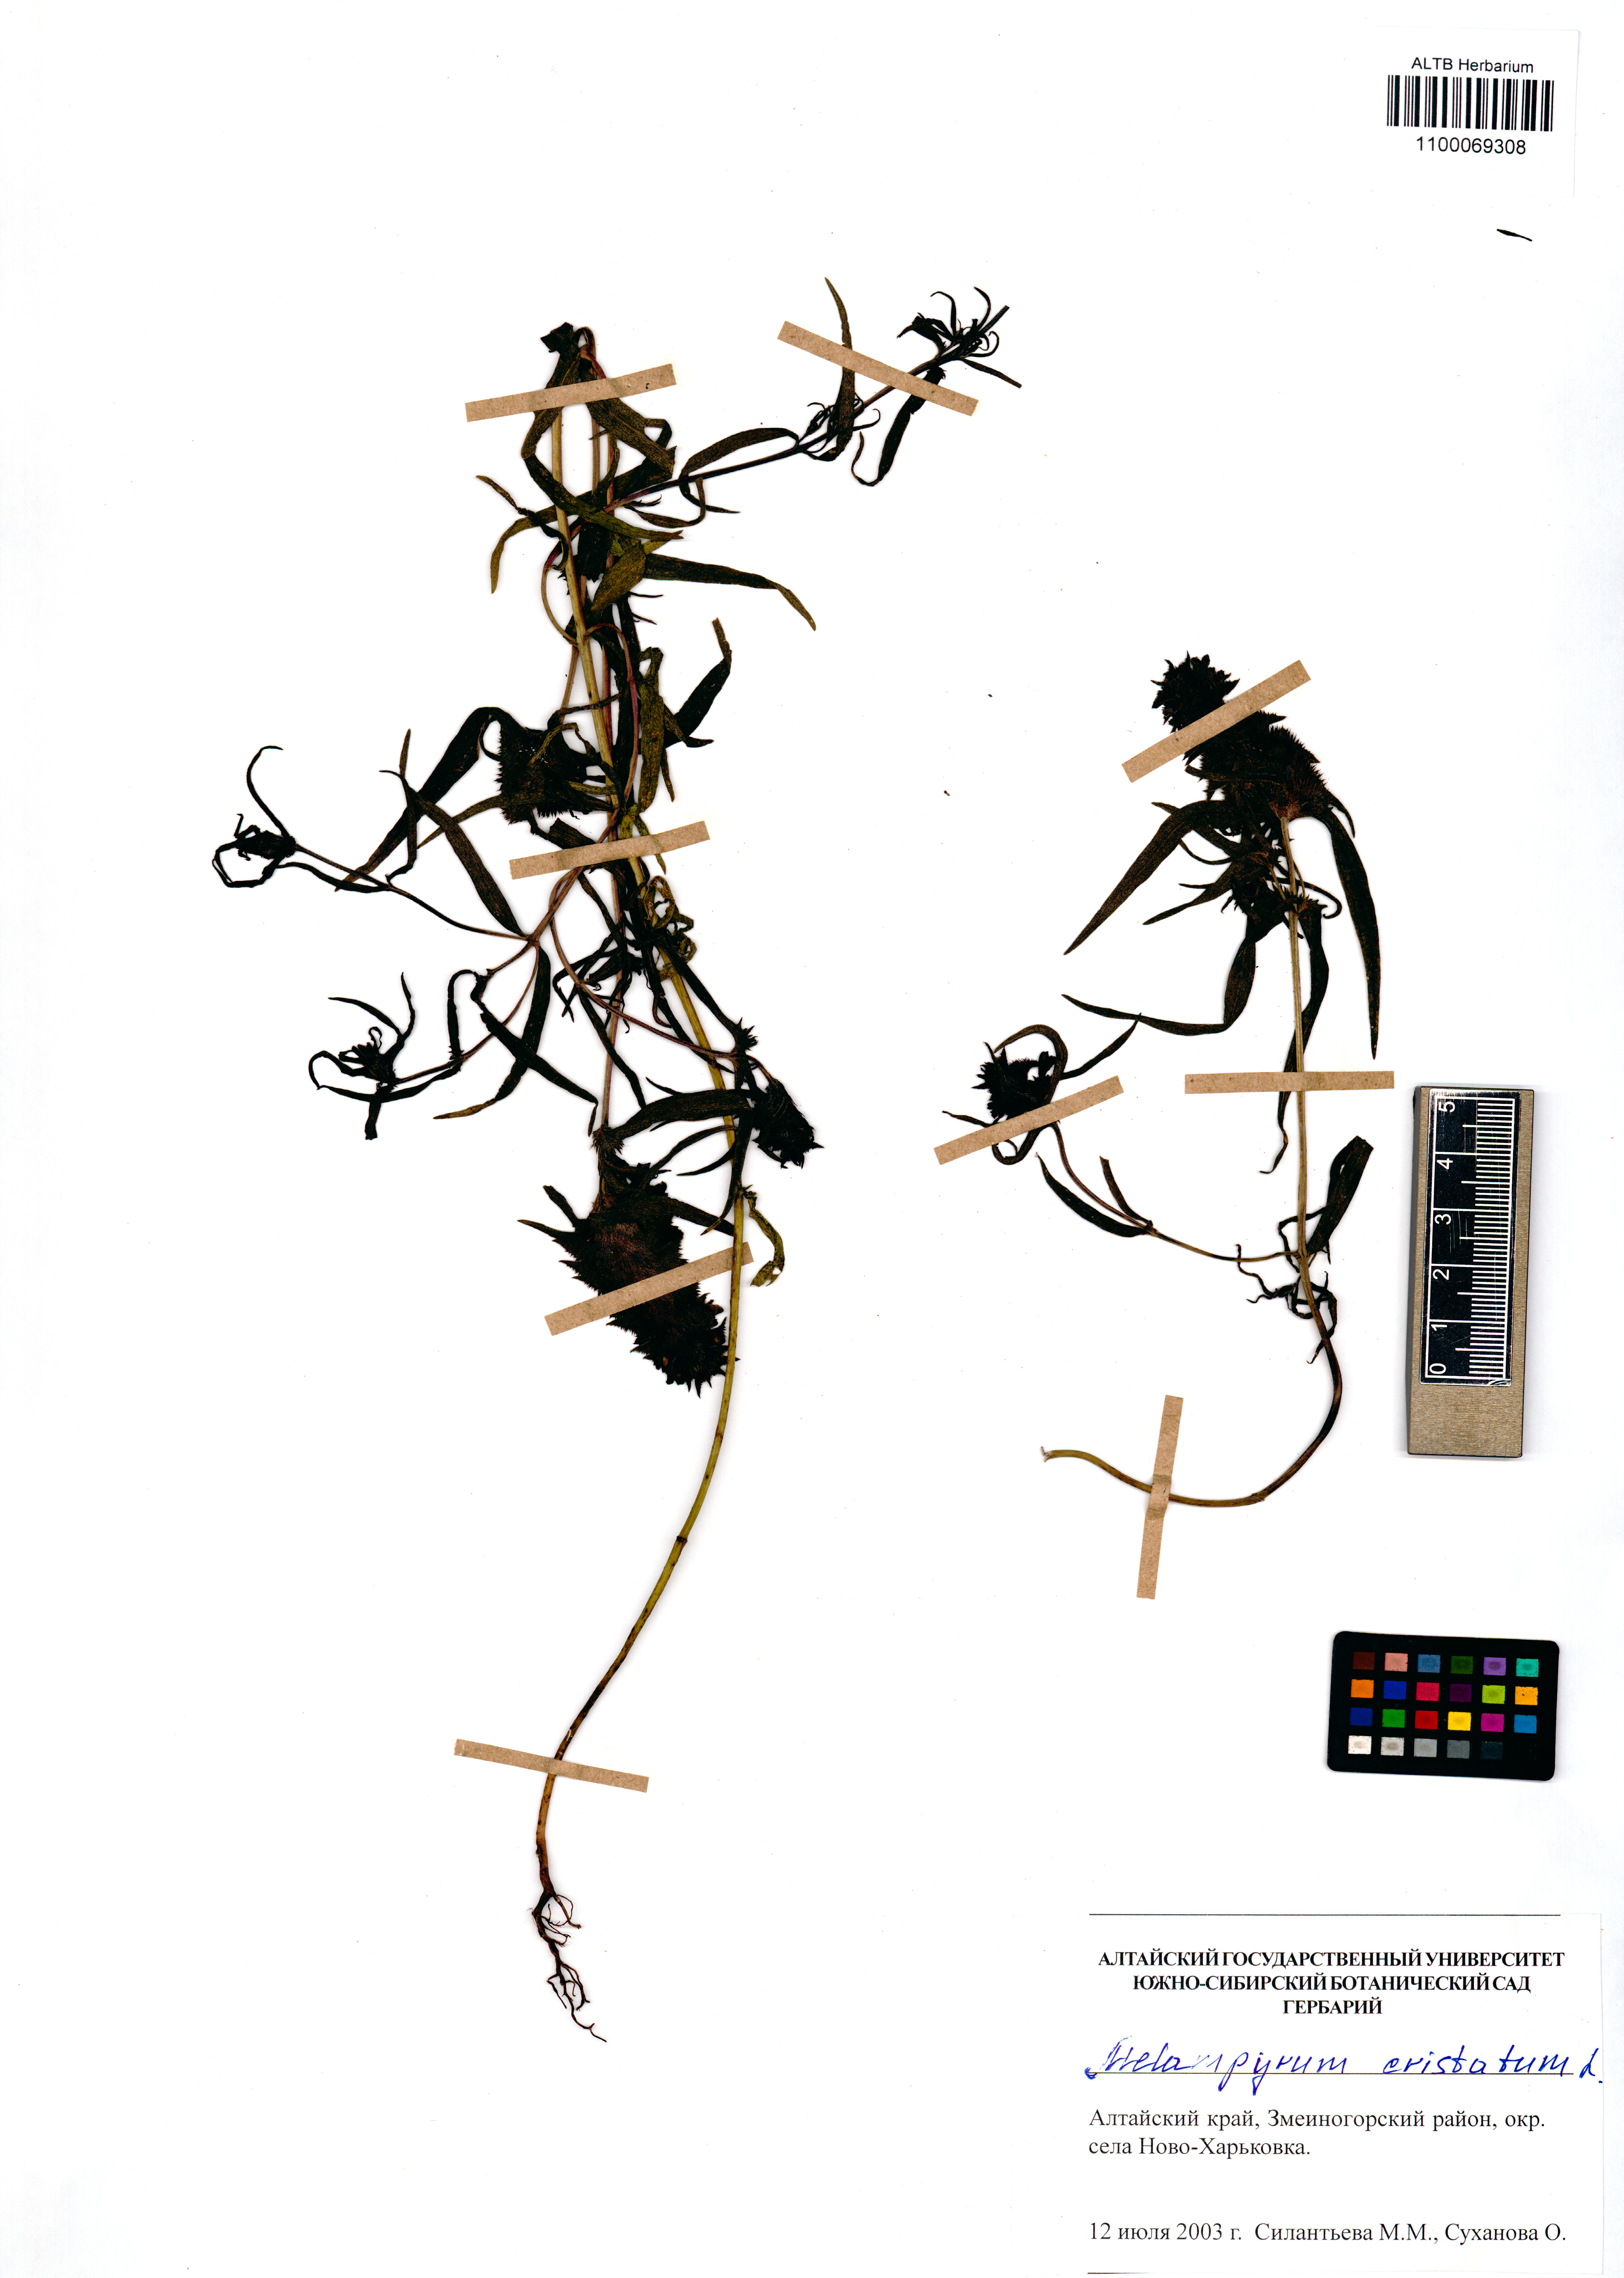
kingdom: Plantae
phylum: Tracheophyta
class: Magnoliopsida
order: Lamiales
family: Orobanchaceae
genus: Melampyrum
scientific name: Melampyrum cristatum
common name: Crested cow-wheat
